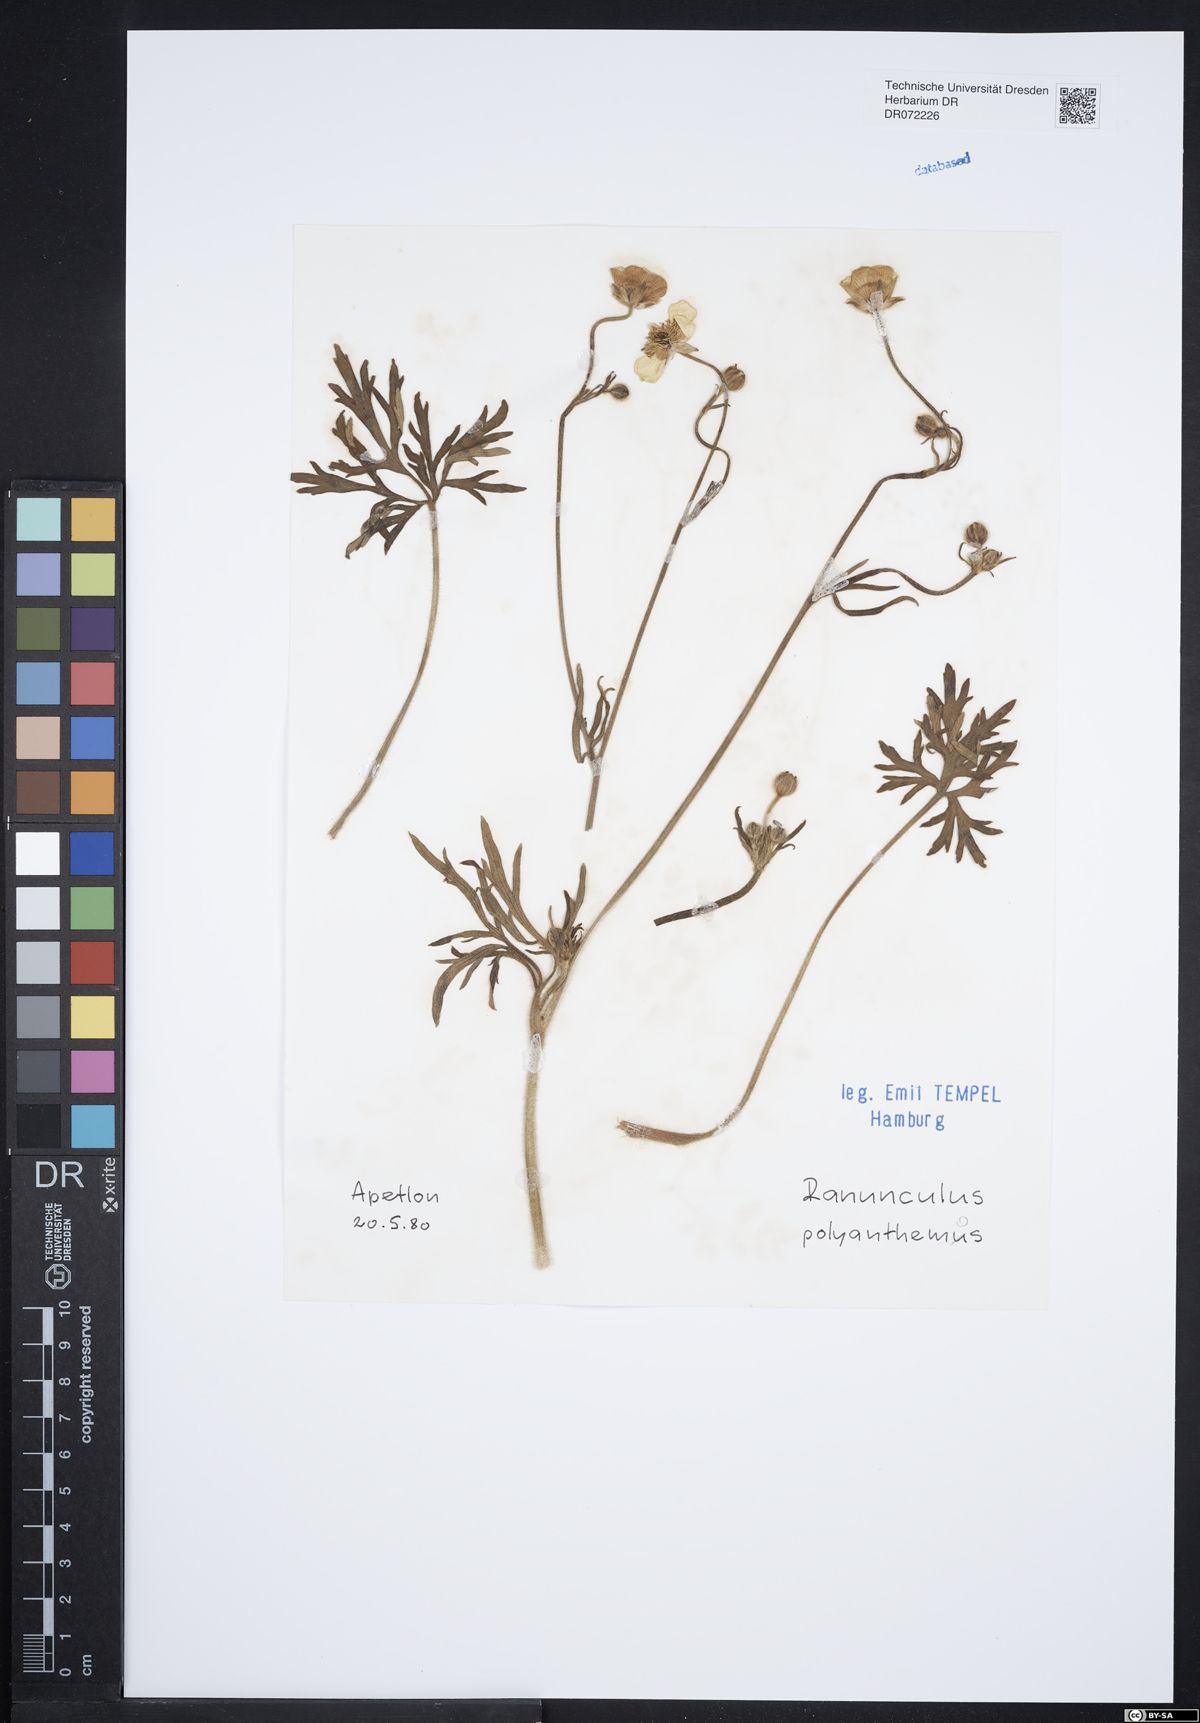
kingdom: Plantae
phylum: Tracheophyta
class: Magnoliopsida
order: Ranunculales
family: Ranunculaceae
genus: Ranunculus
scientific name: Ranunculus polyanthemos
